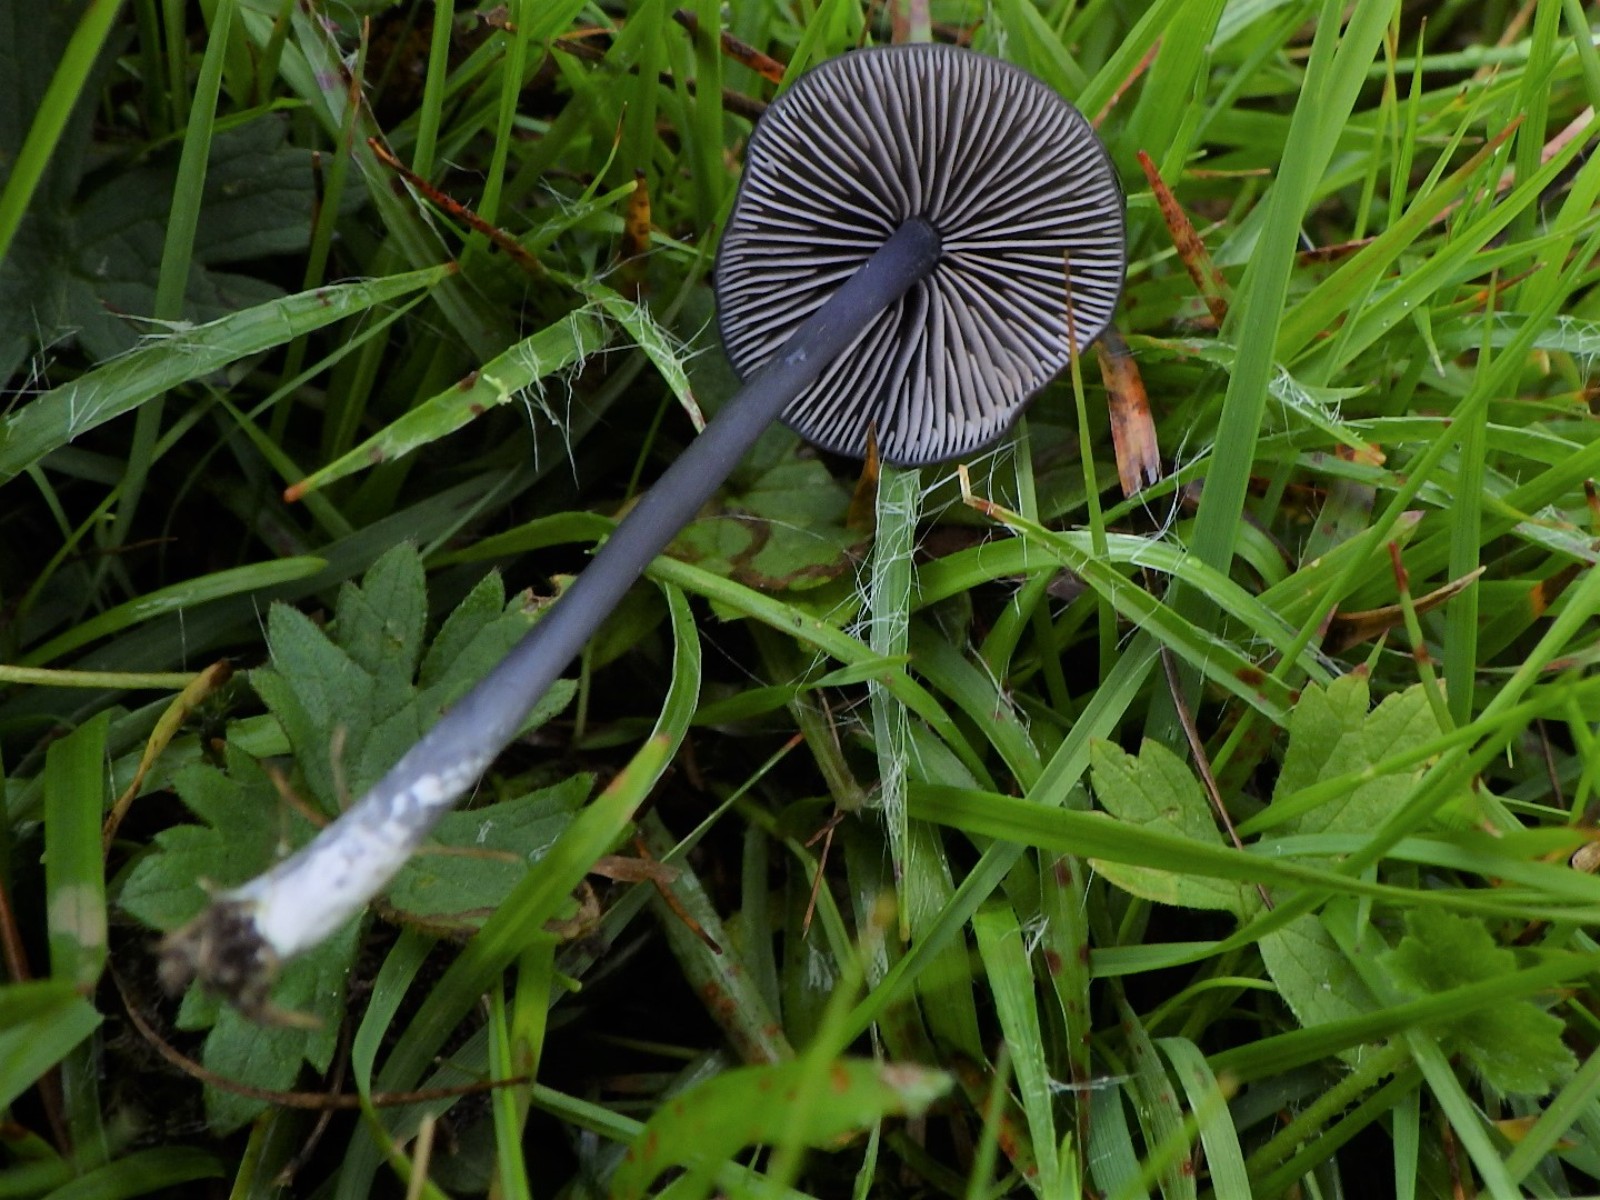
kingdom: Fungi
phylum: Basidiomycota
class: Agaricomycetes
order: Agaricales
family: Entolomataceae
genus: Entoloma
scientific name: Entoloma chalybeum
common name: blåbladet rødblad
